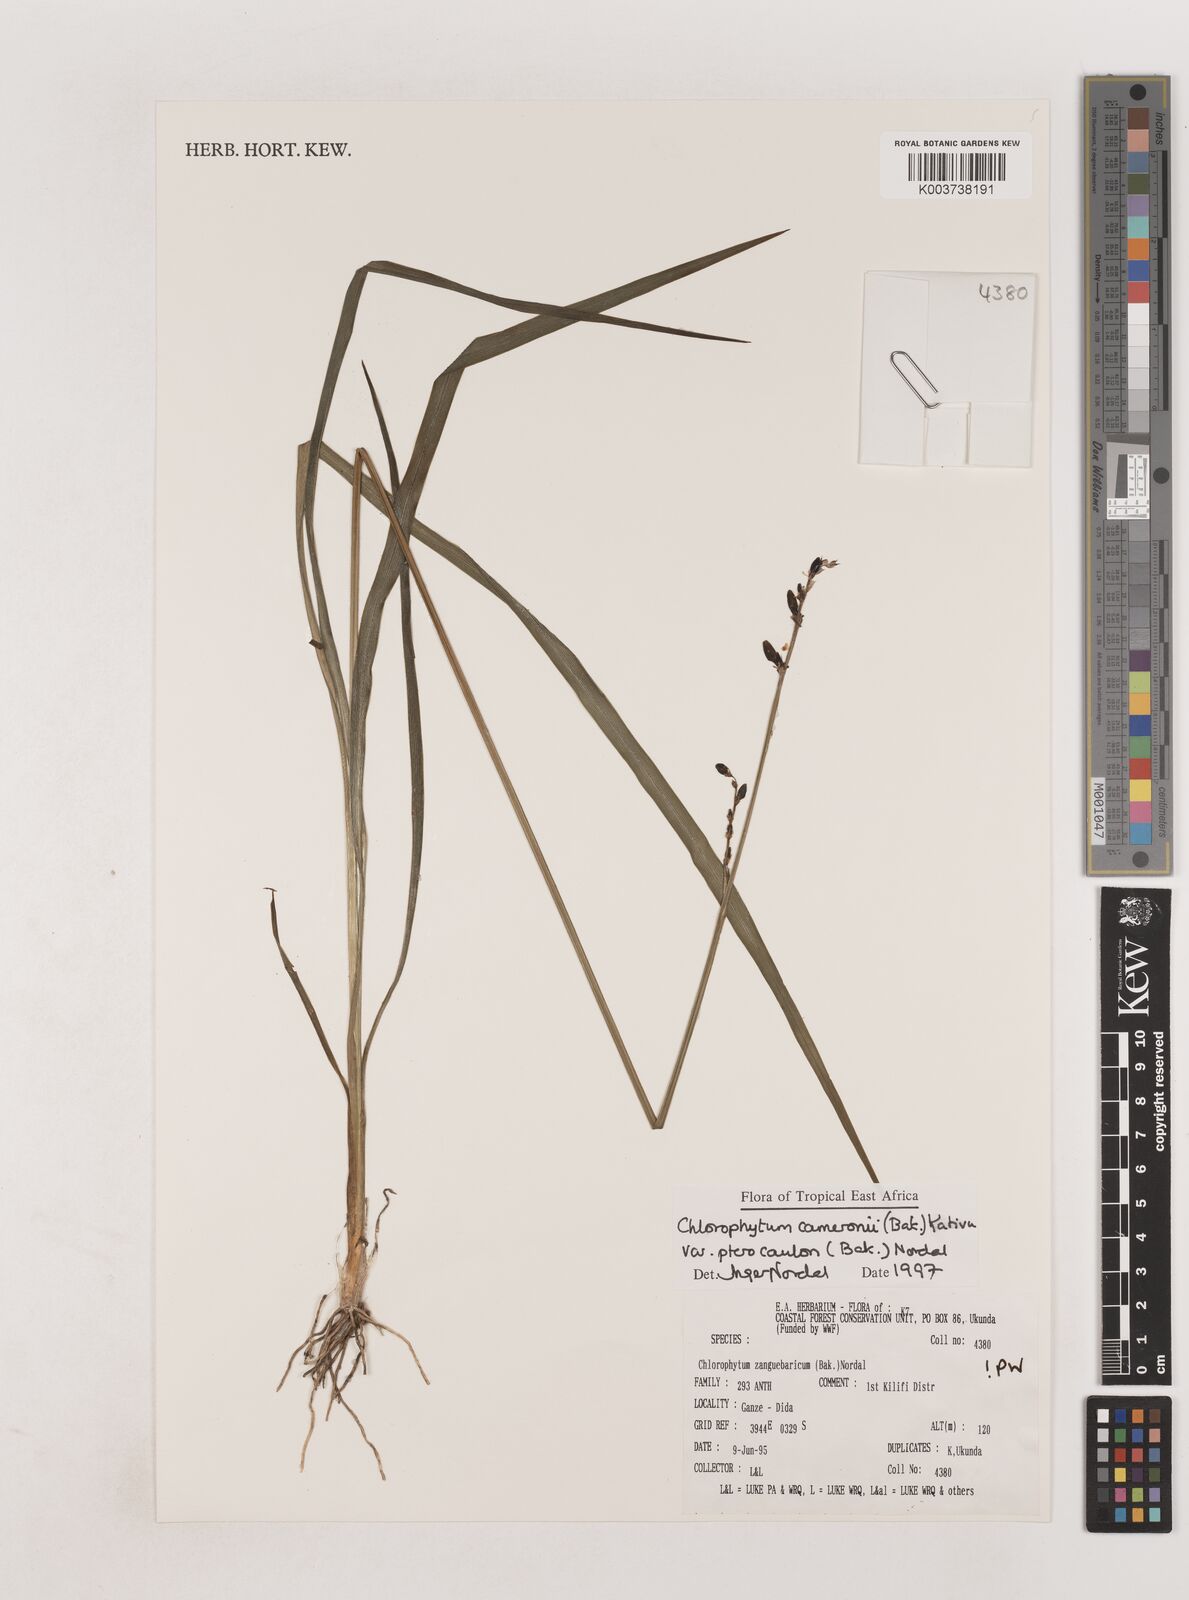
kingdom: Plantae
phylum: Tracheophyta
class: Liliopsida
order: Asparagales
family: Asparagaceae
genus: Chlorophytum
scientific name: Chlorophytum cameronii
